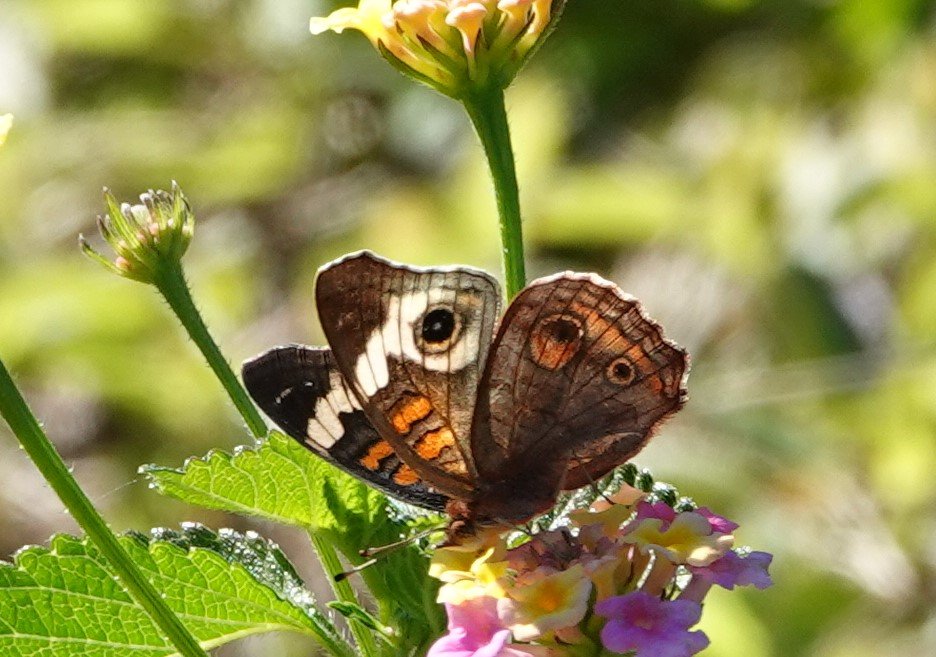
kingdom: Animalia
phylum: Arthropoda
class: Insecta
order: Lepidoptera
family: Nymphalidae
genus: Junonia
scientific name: Junonia coenia
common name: Common Buckeye
